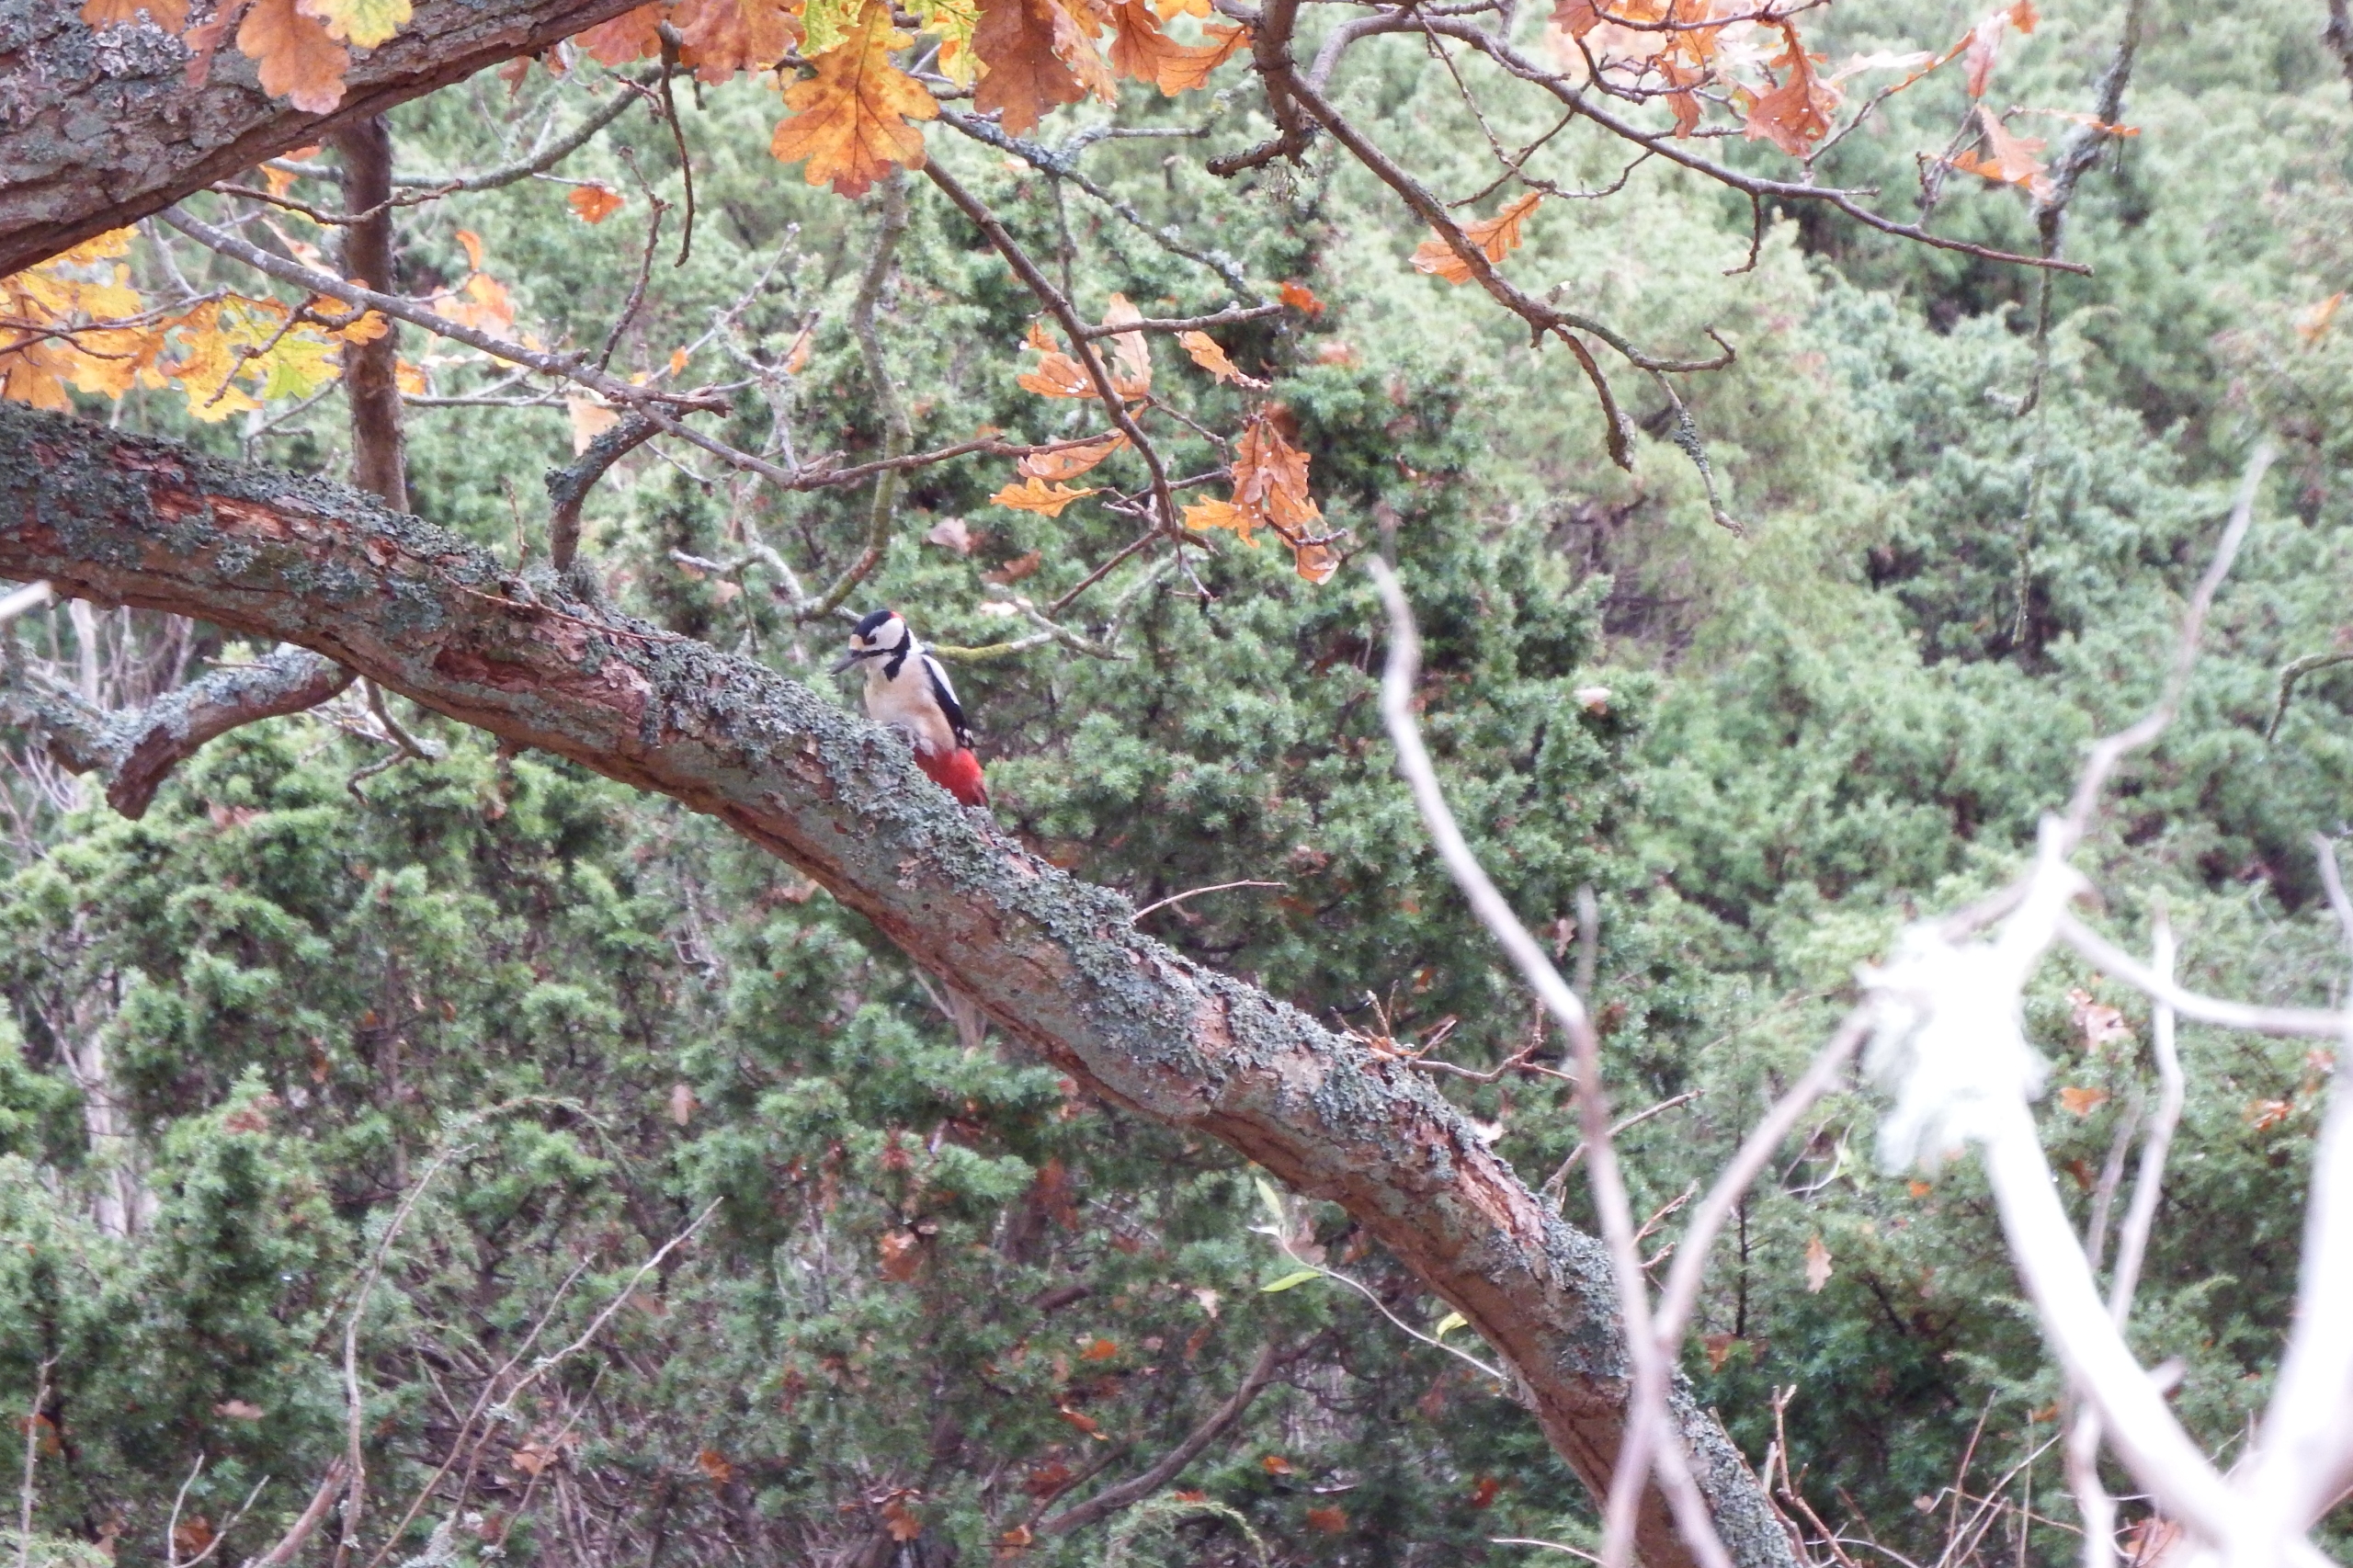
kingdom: Animalia
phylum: Chordata
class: Aves
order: Piciformes
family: Picidae
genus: Dendrocopos
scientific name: Dendrocopos major
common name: Stor flagspætte
